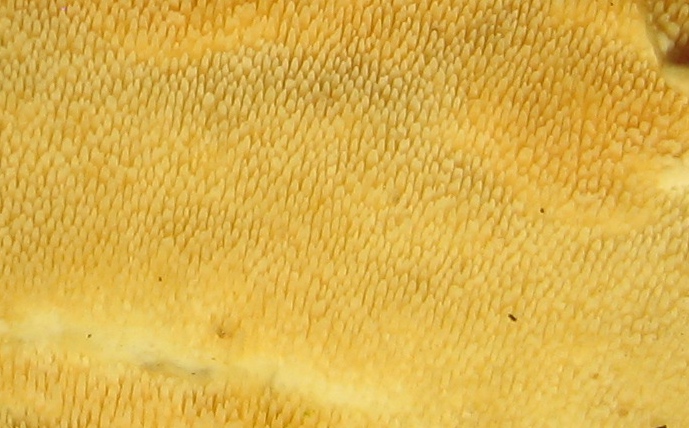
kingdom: Fungi
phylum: Basidiomycota
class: Agaricomycetes
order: Polyporales
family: Steccherinaceae
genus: Steccherinum
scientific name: Steccherinum ochraceum
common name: almindelig skønpig
